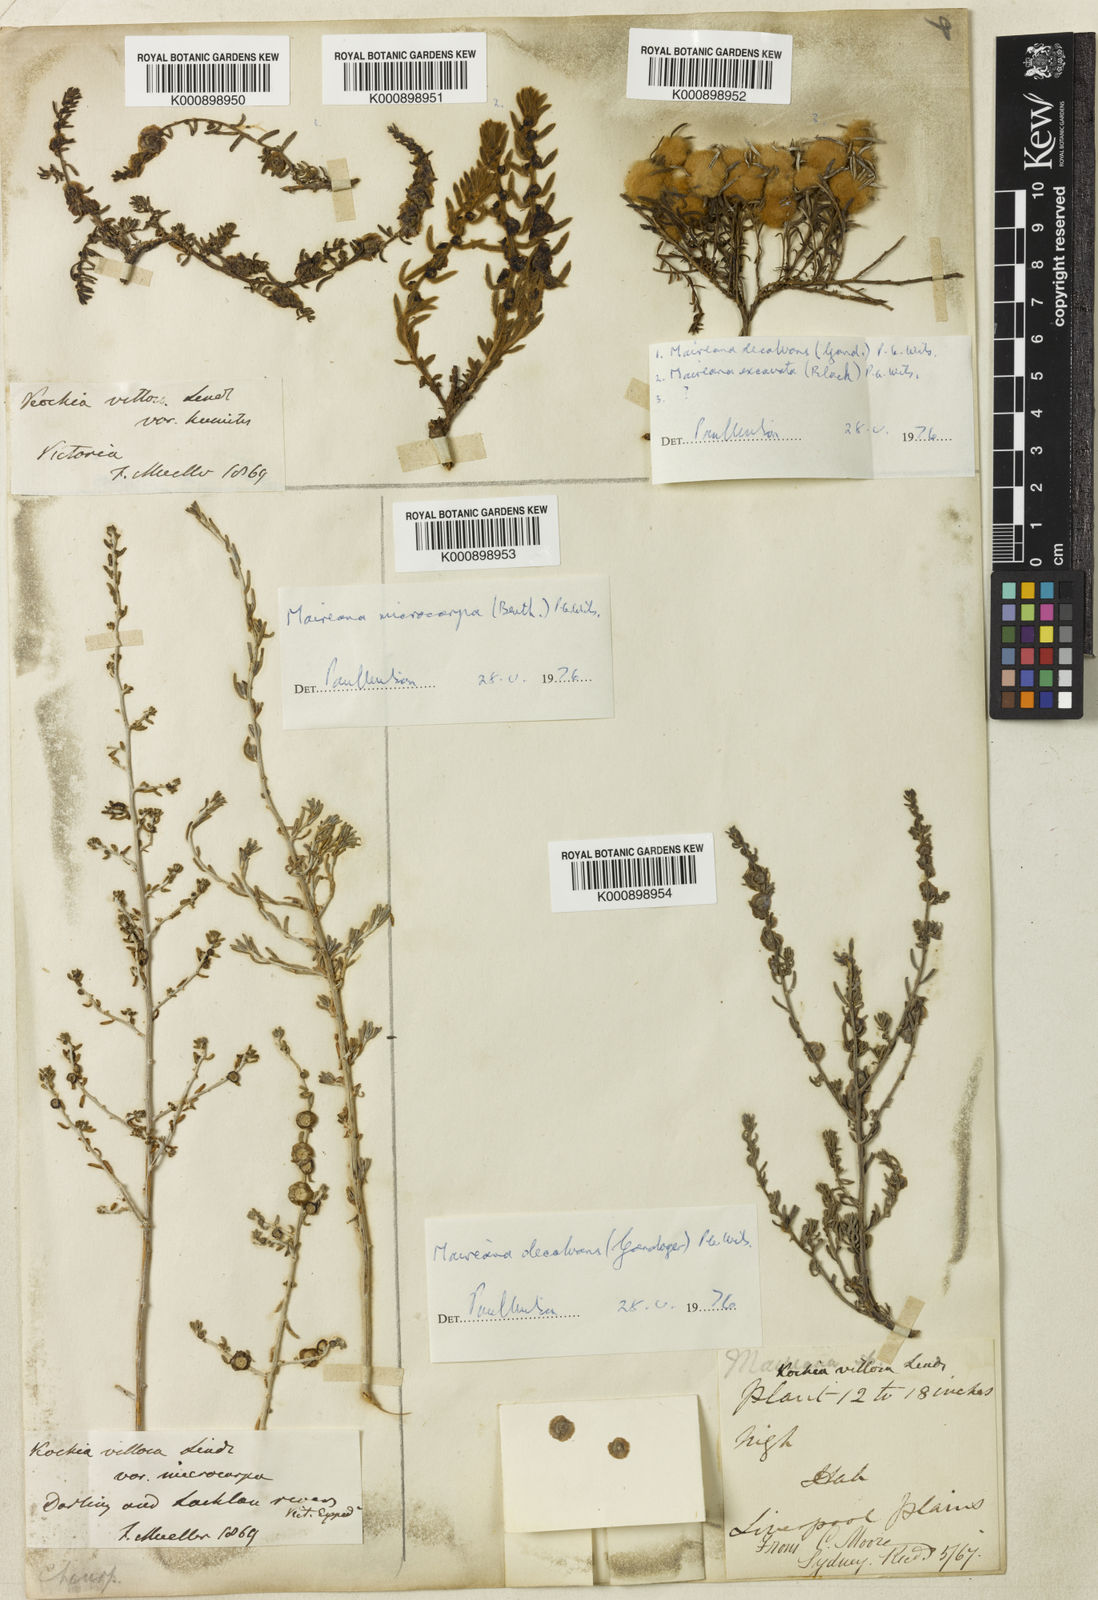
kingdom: Plantae
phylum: Tracheophyta
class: Magnoliopsida
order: Caryophyllales
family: Amaranthaceae
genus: Maireana
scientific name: Maireana villosa
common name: Silky bluebush
